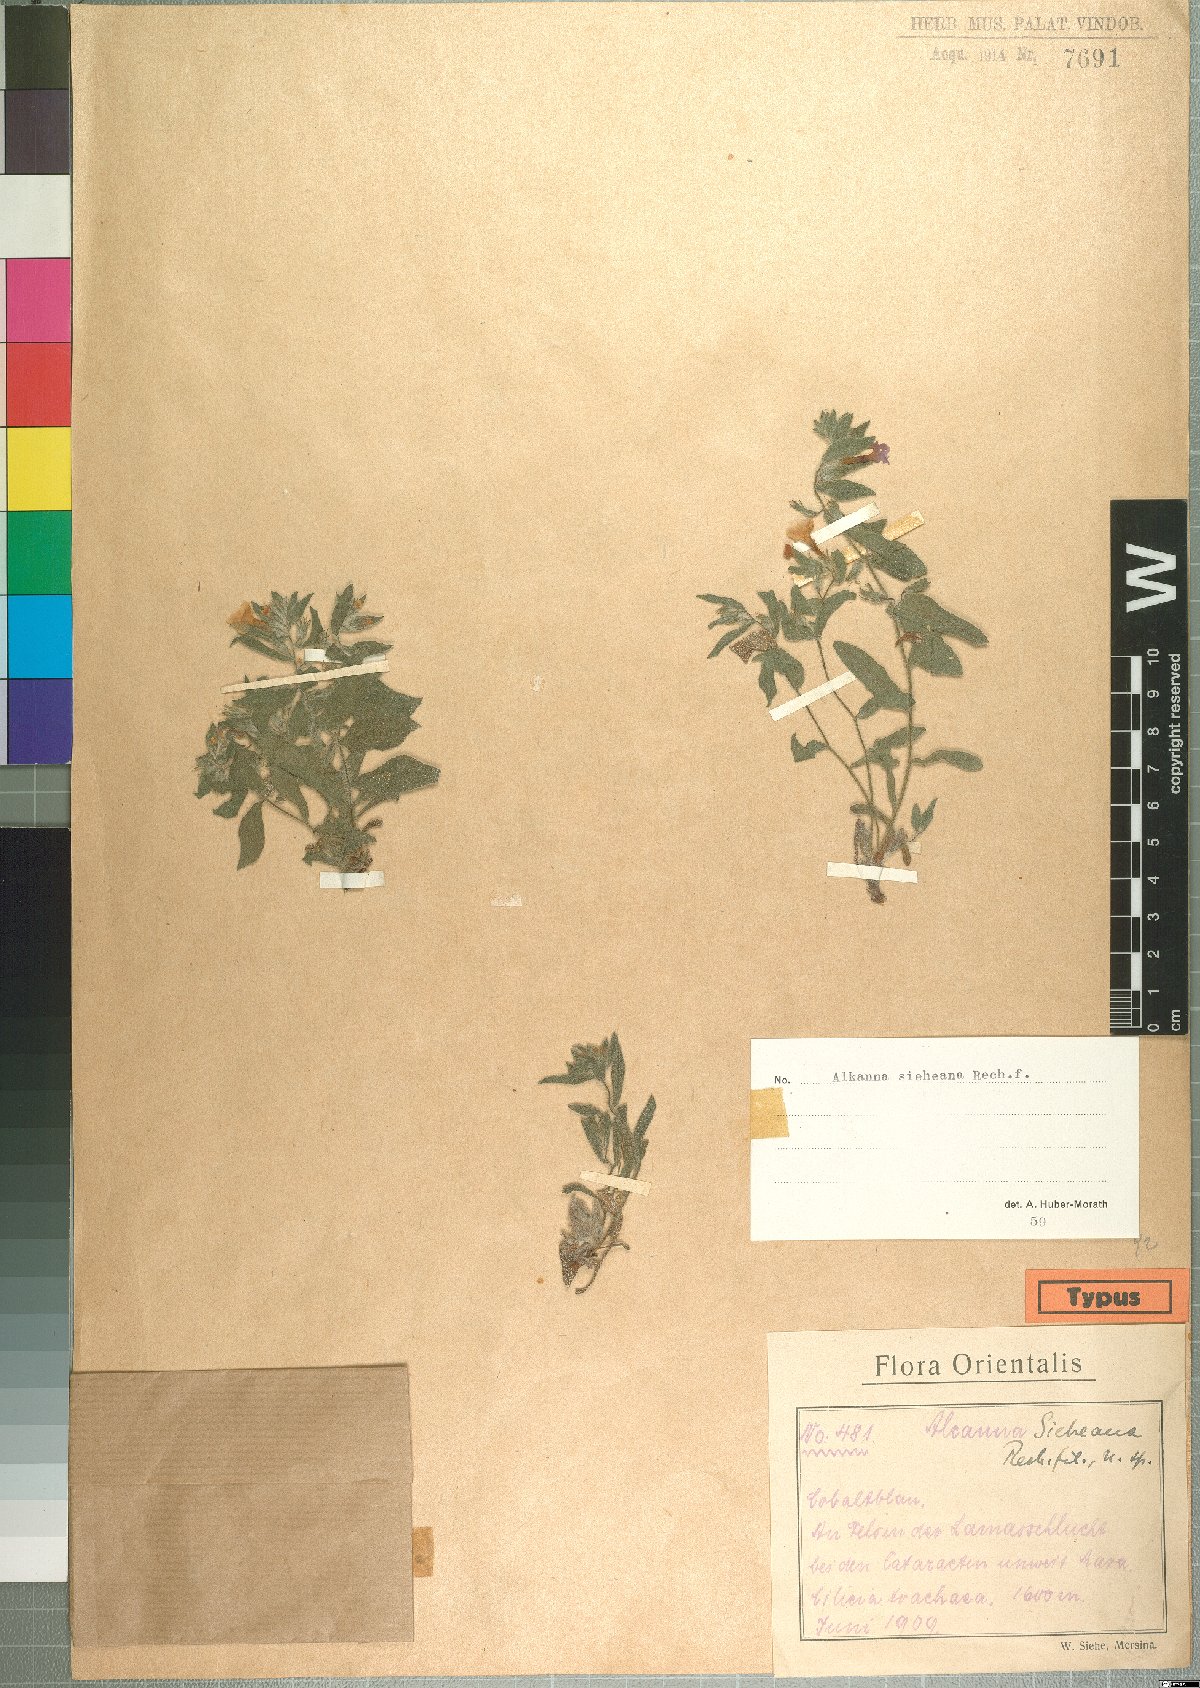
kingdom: Plantae
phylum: Tracheophyta
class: Magnoliopsida
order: Boraginales
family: Boraginaceae
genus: Alkanna
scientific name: Alkanna sieheana
